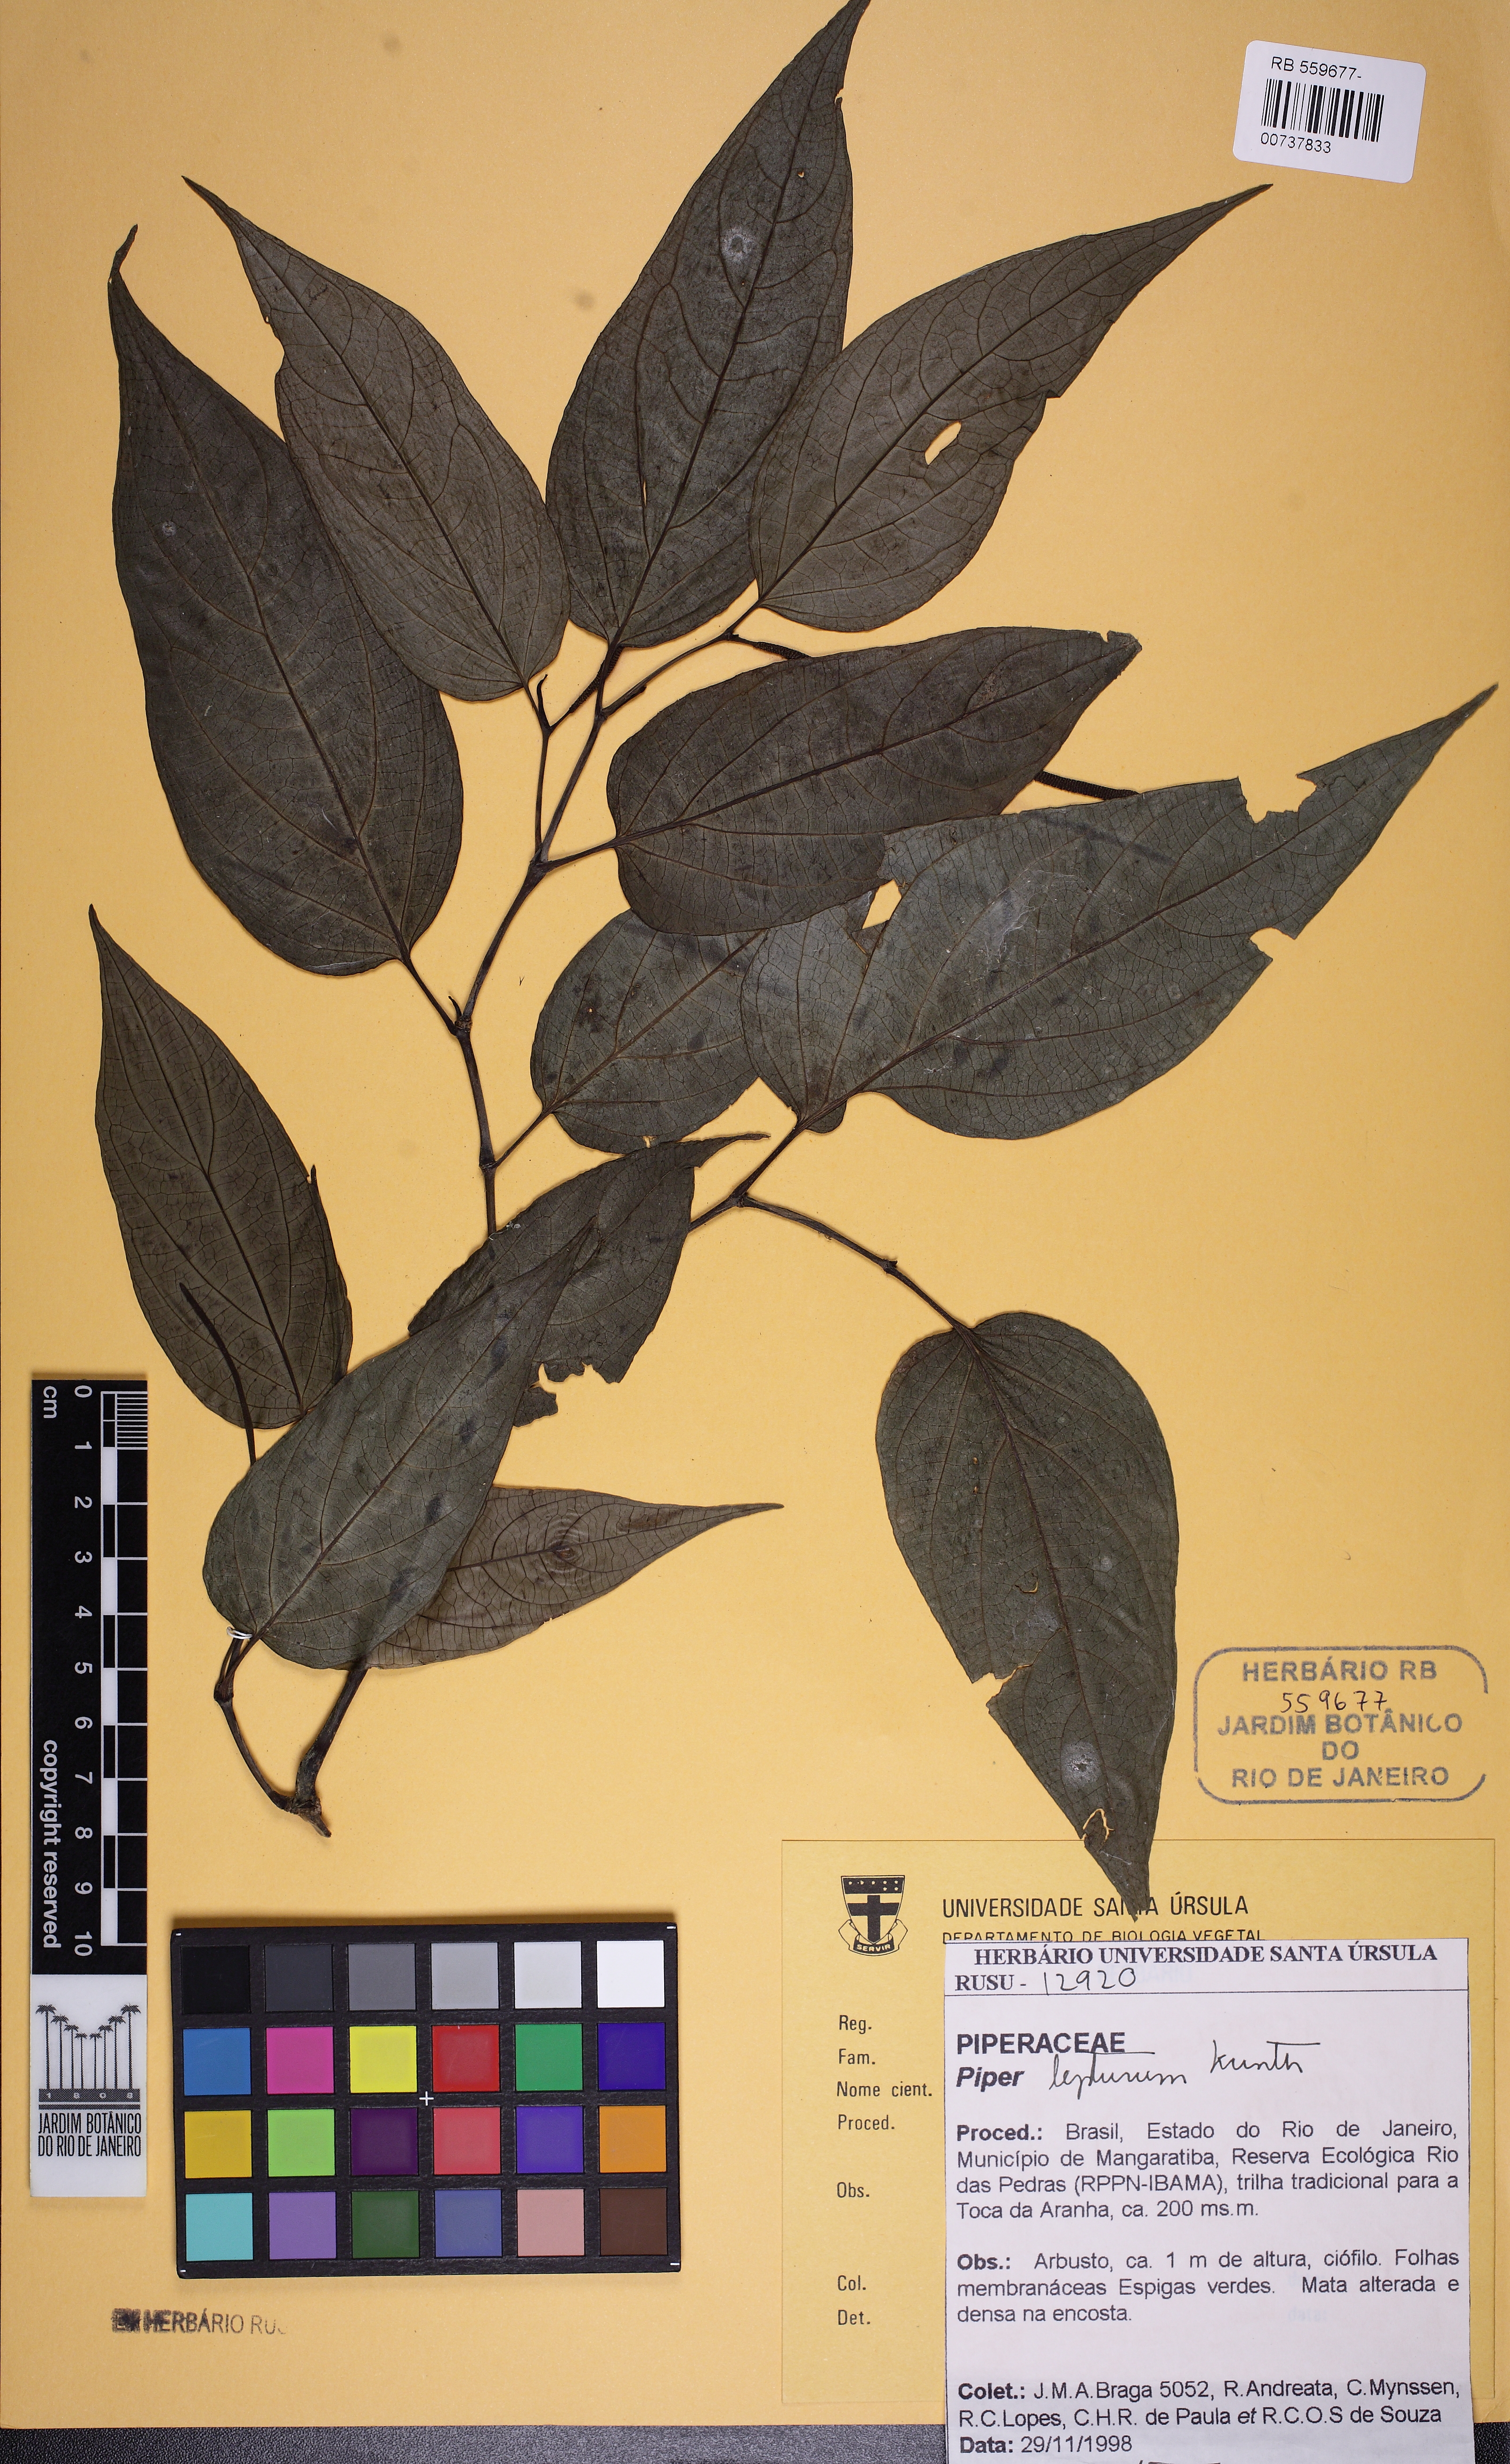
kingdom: Plantae
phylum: Tracheophyta
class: Magnoliopsida
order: Piperales
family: Piperaceae
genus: Piper
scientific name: Piper lepturum
